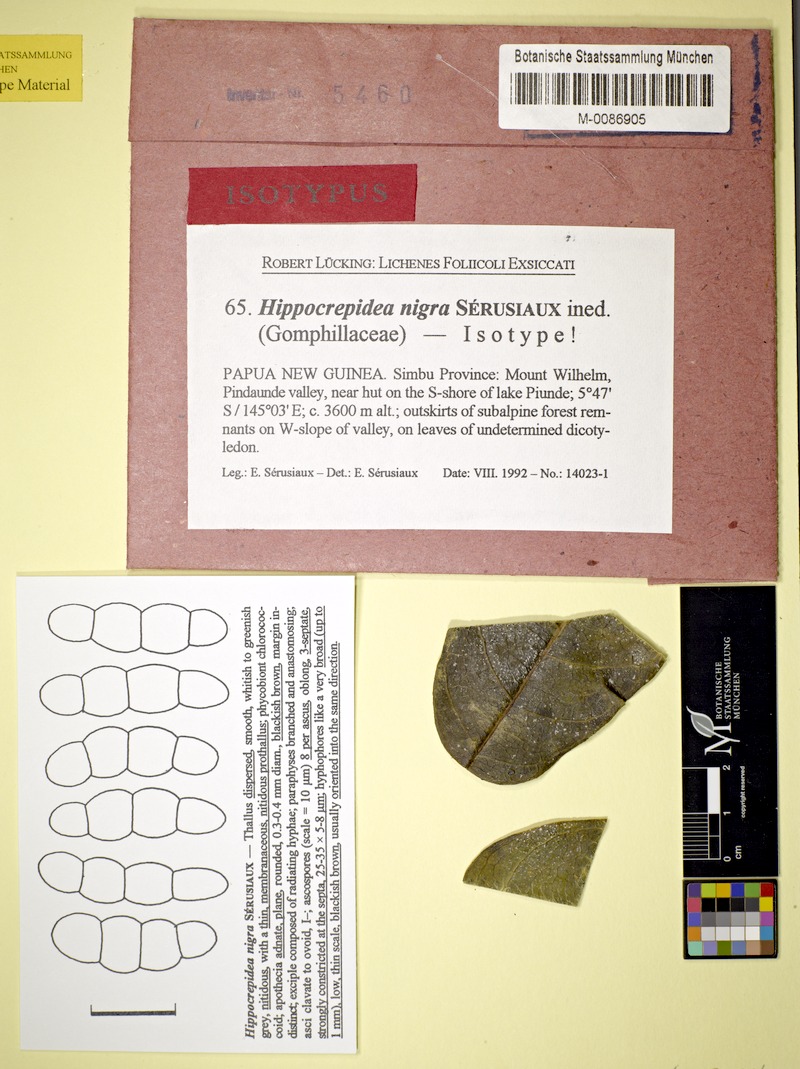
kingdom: Fungi
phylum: Ascomycota
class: Lecanoromycetes
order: Ostropales
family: Gomphillaceae
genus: Hippocrepidea
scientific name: Hippocrepidea nigra
